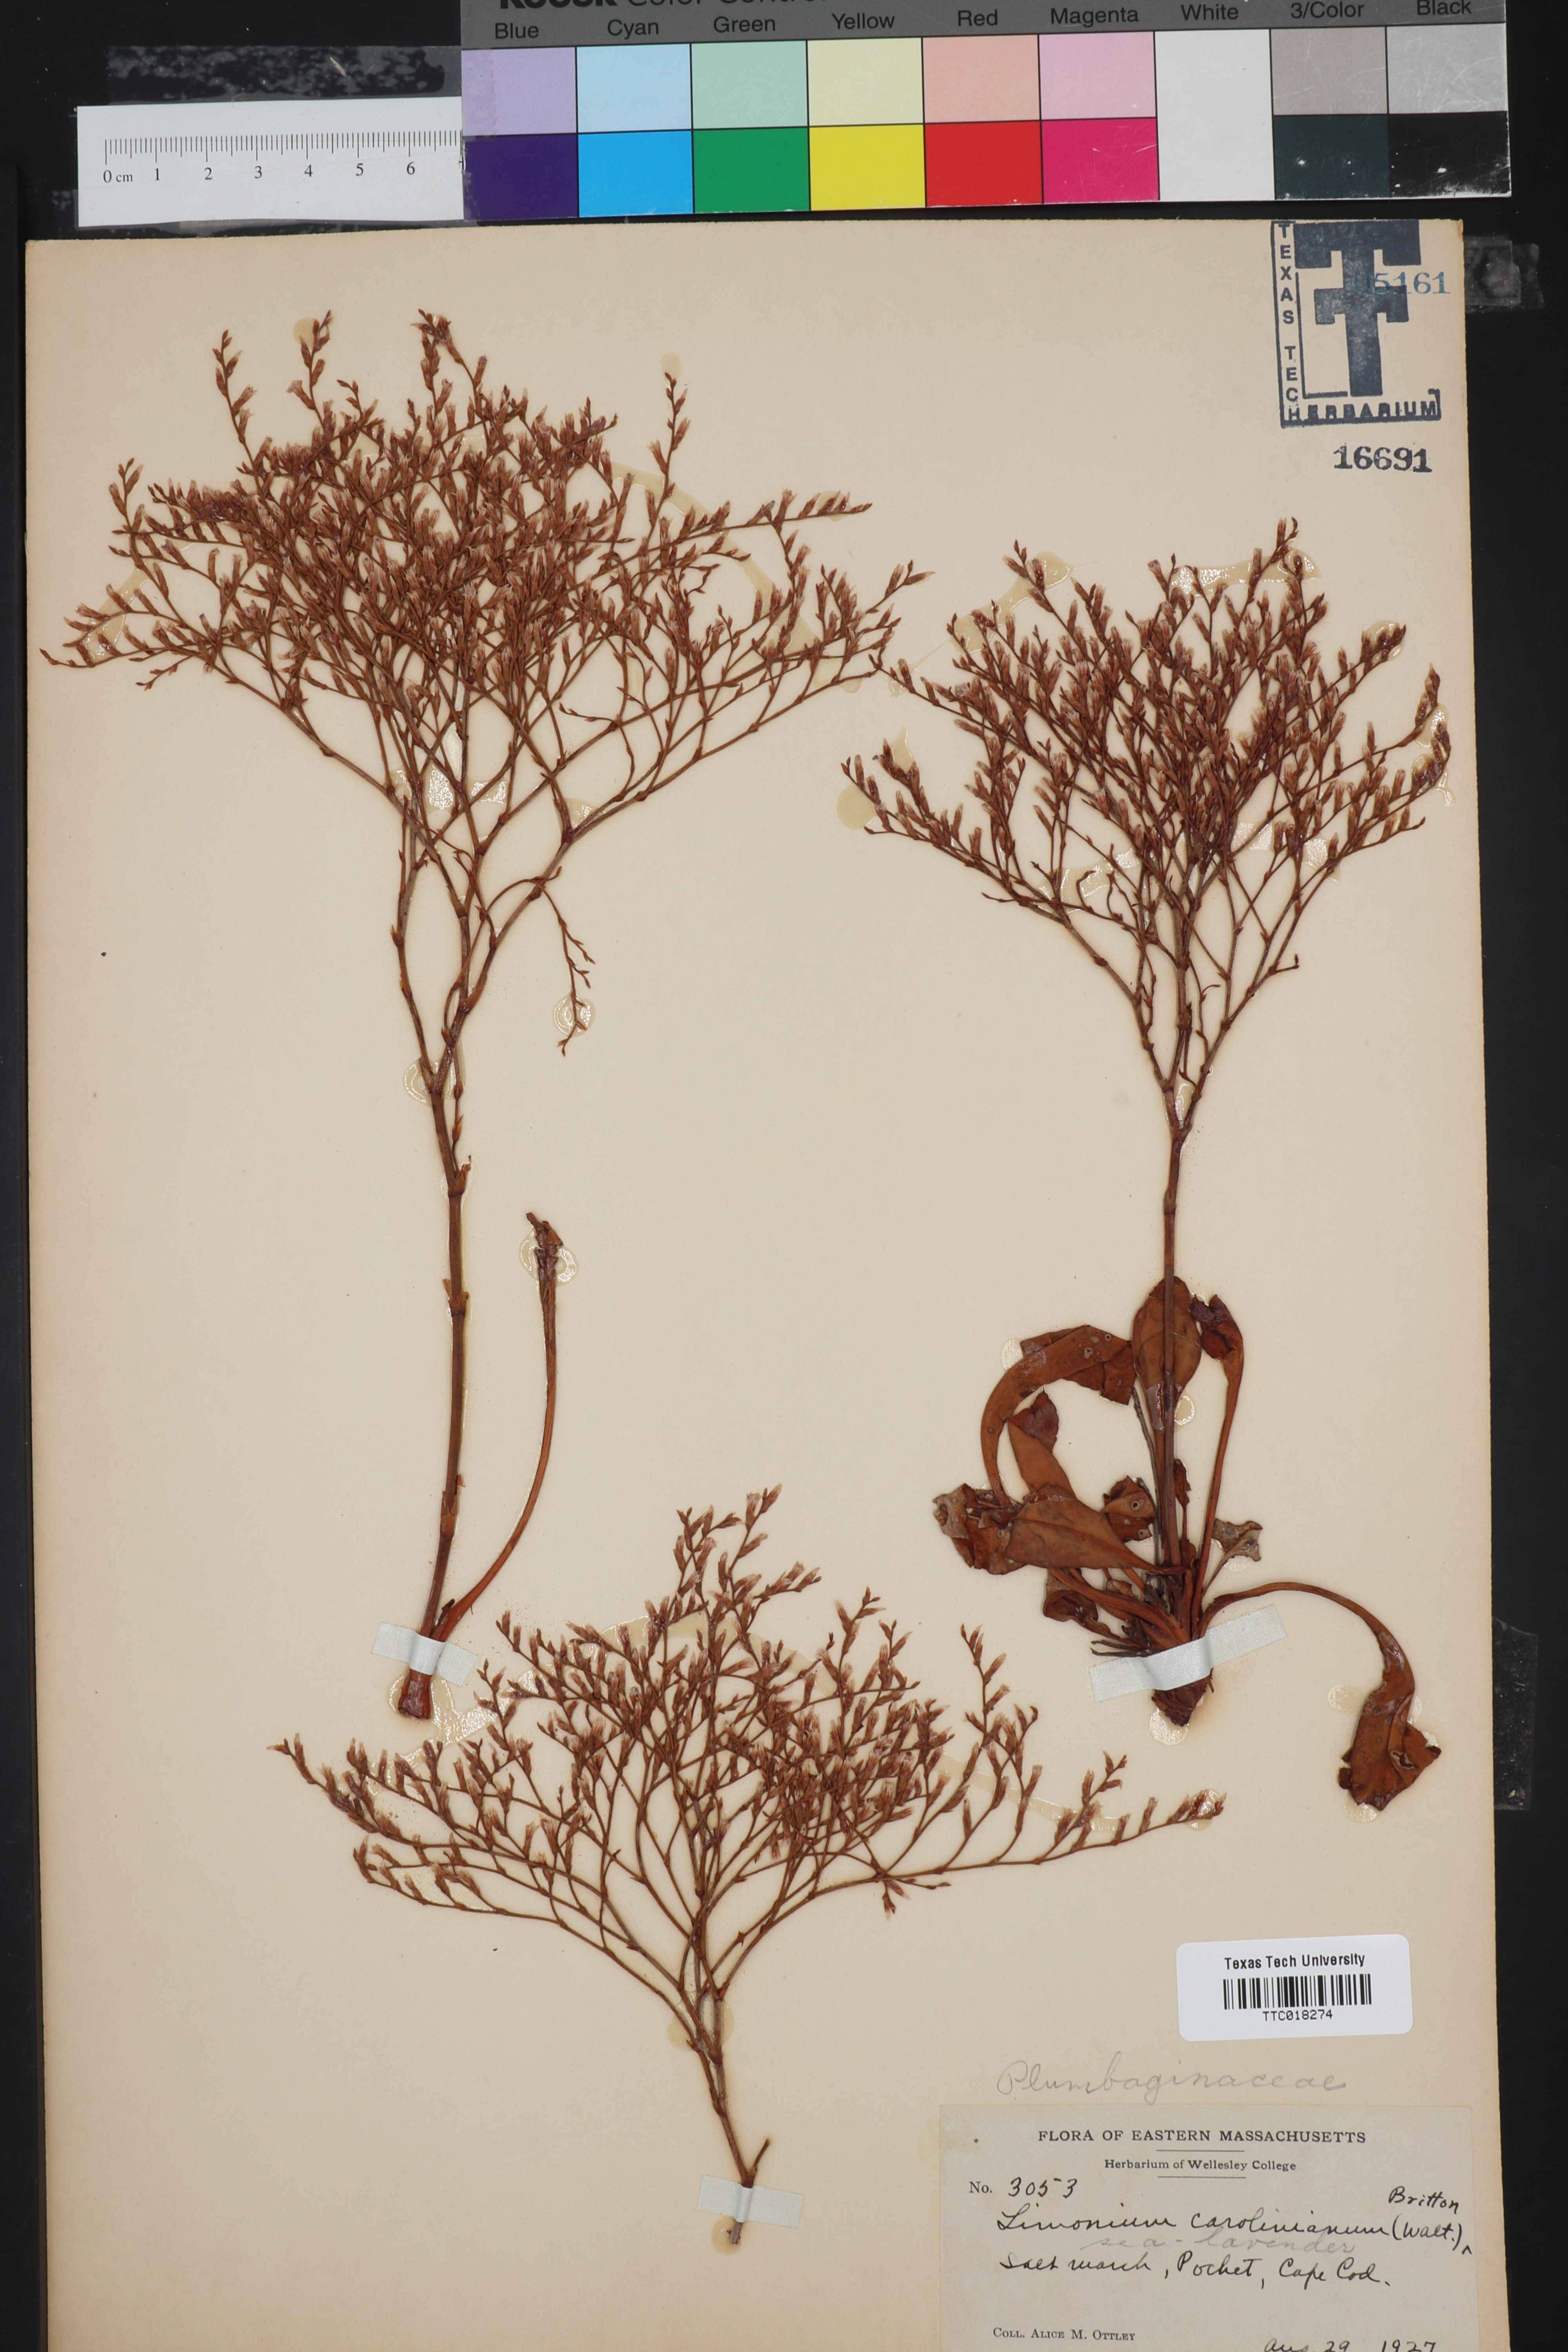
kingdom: Plantae
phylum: Tracheophyta
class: Magnoliopsida
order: Caryophyllales
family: Plumbaginaceae
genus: Limonium
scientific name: Limonium carolinianum
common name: Carolina sea lavender
